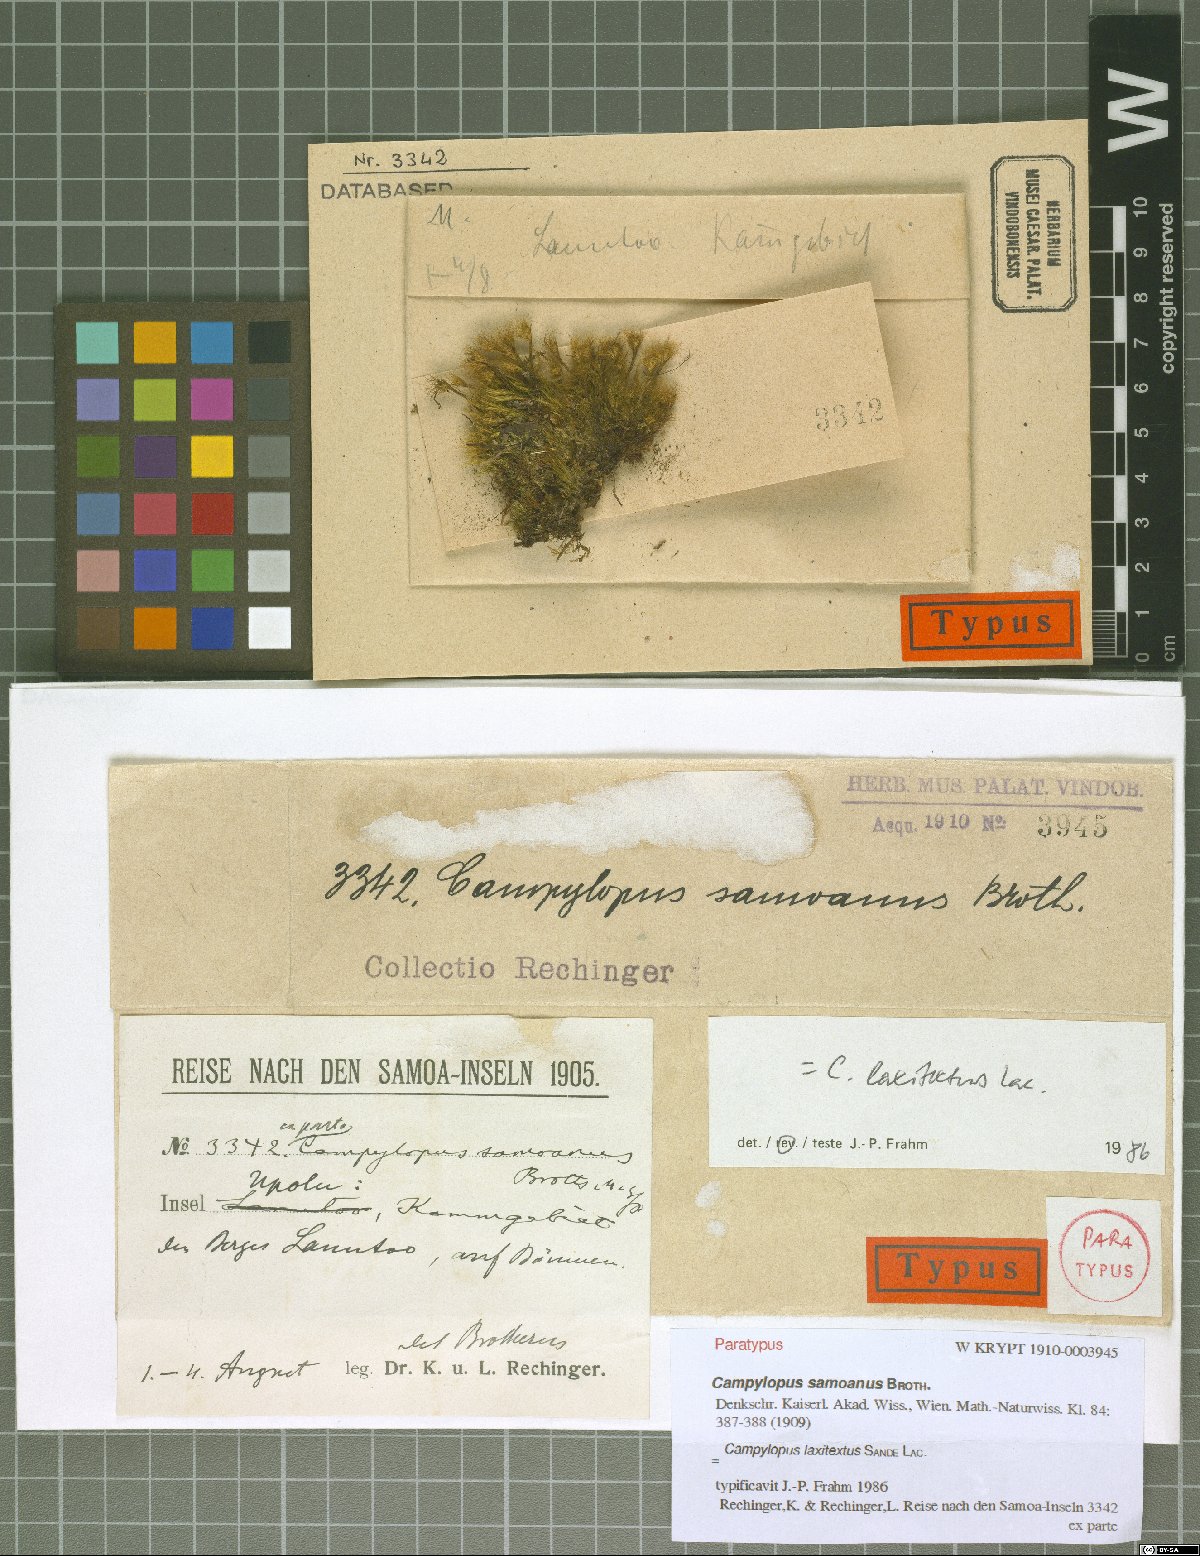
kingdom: Plantae
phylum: Bryophyta
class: Bryopsida
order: Dicranales
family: Leucobryaceae
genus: Campylopus
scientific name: Campylopus laxitextus
